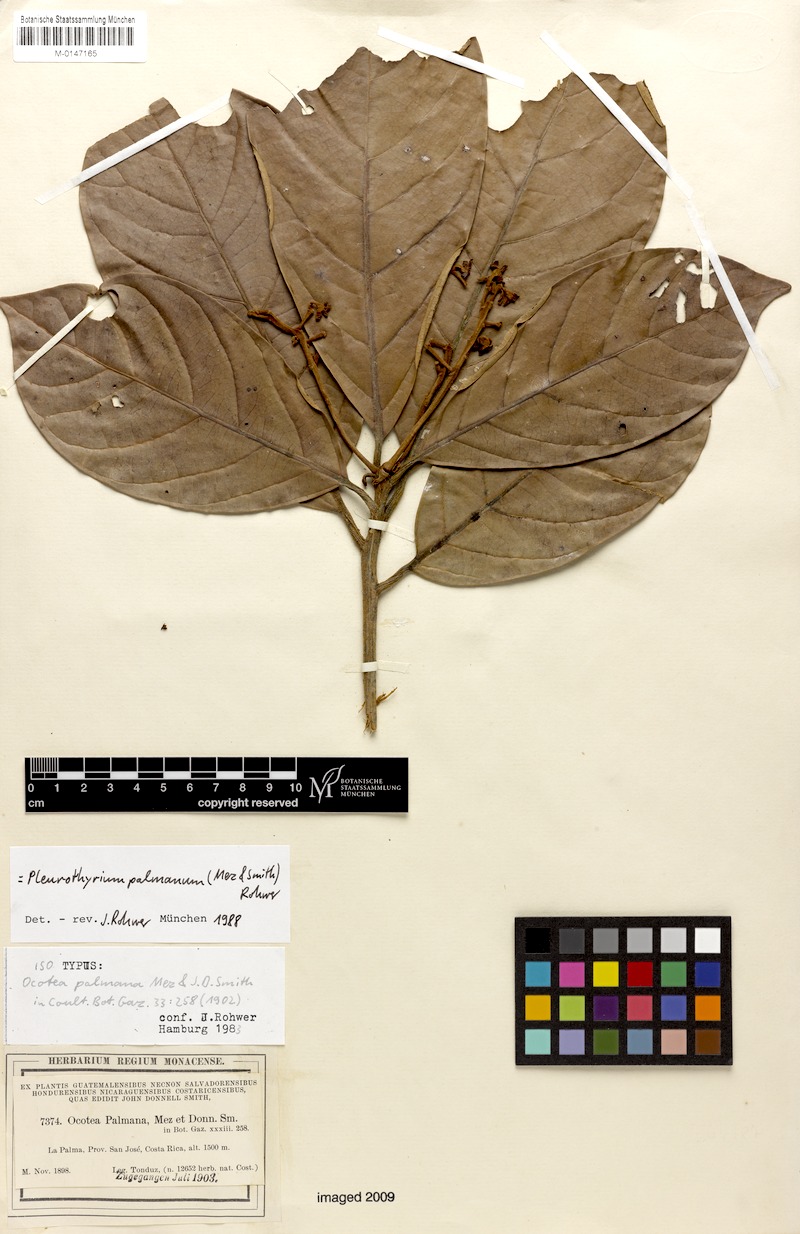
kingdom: Plantae
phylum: Tracheophyta
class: Magnoliopsida
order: Laurales
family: Lauraceae
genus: Pleurothyrium
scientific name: Pleurothyrium palmanum
